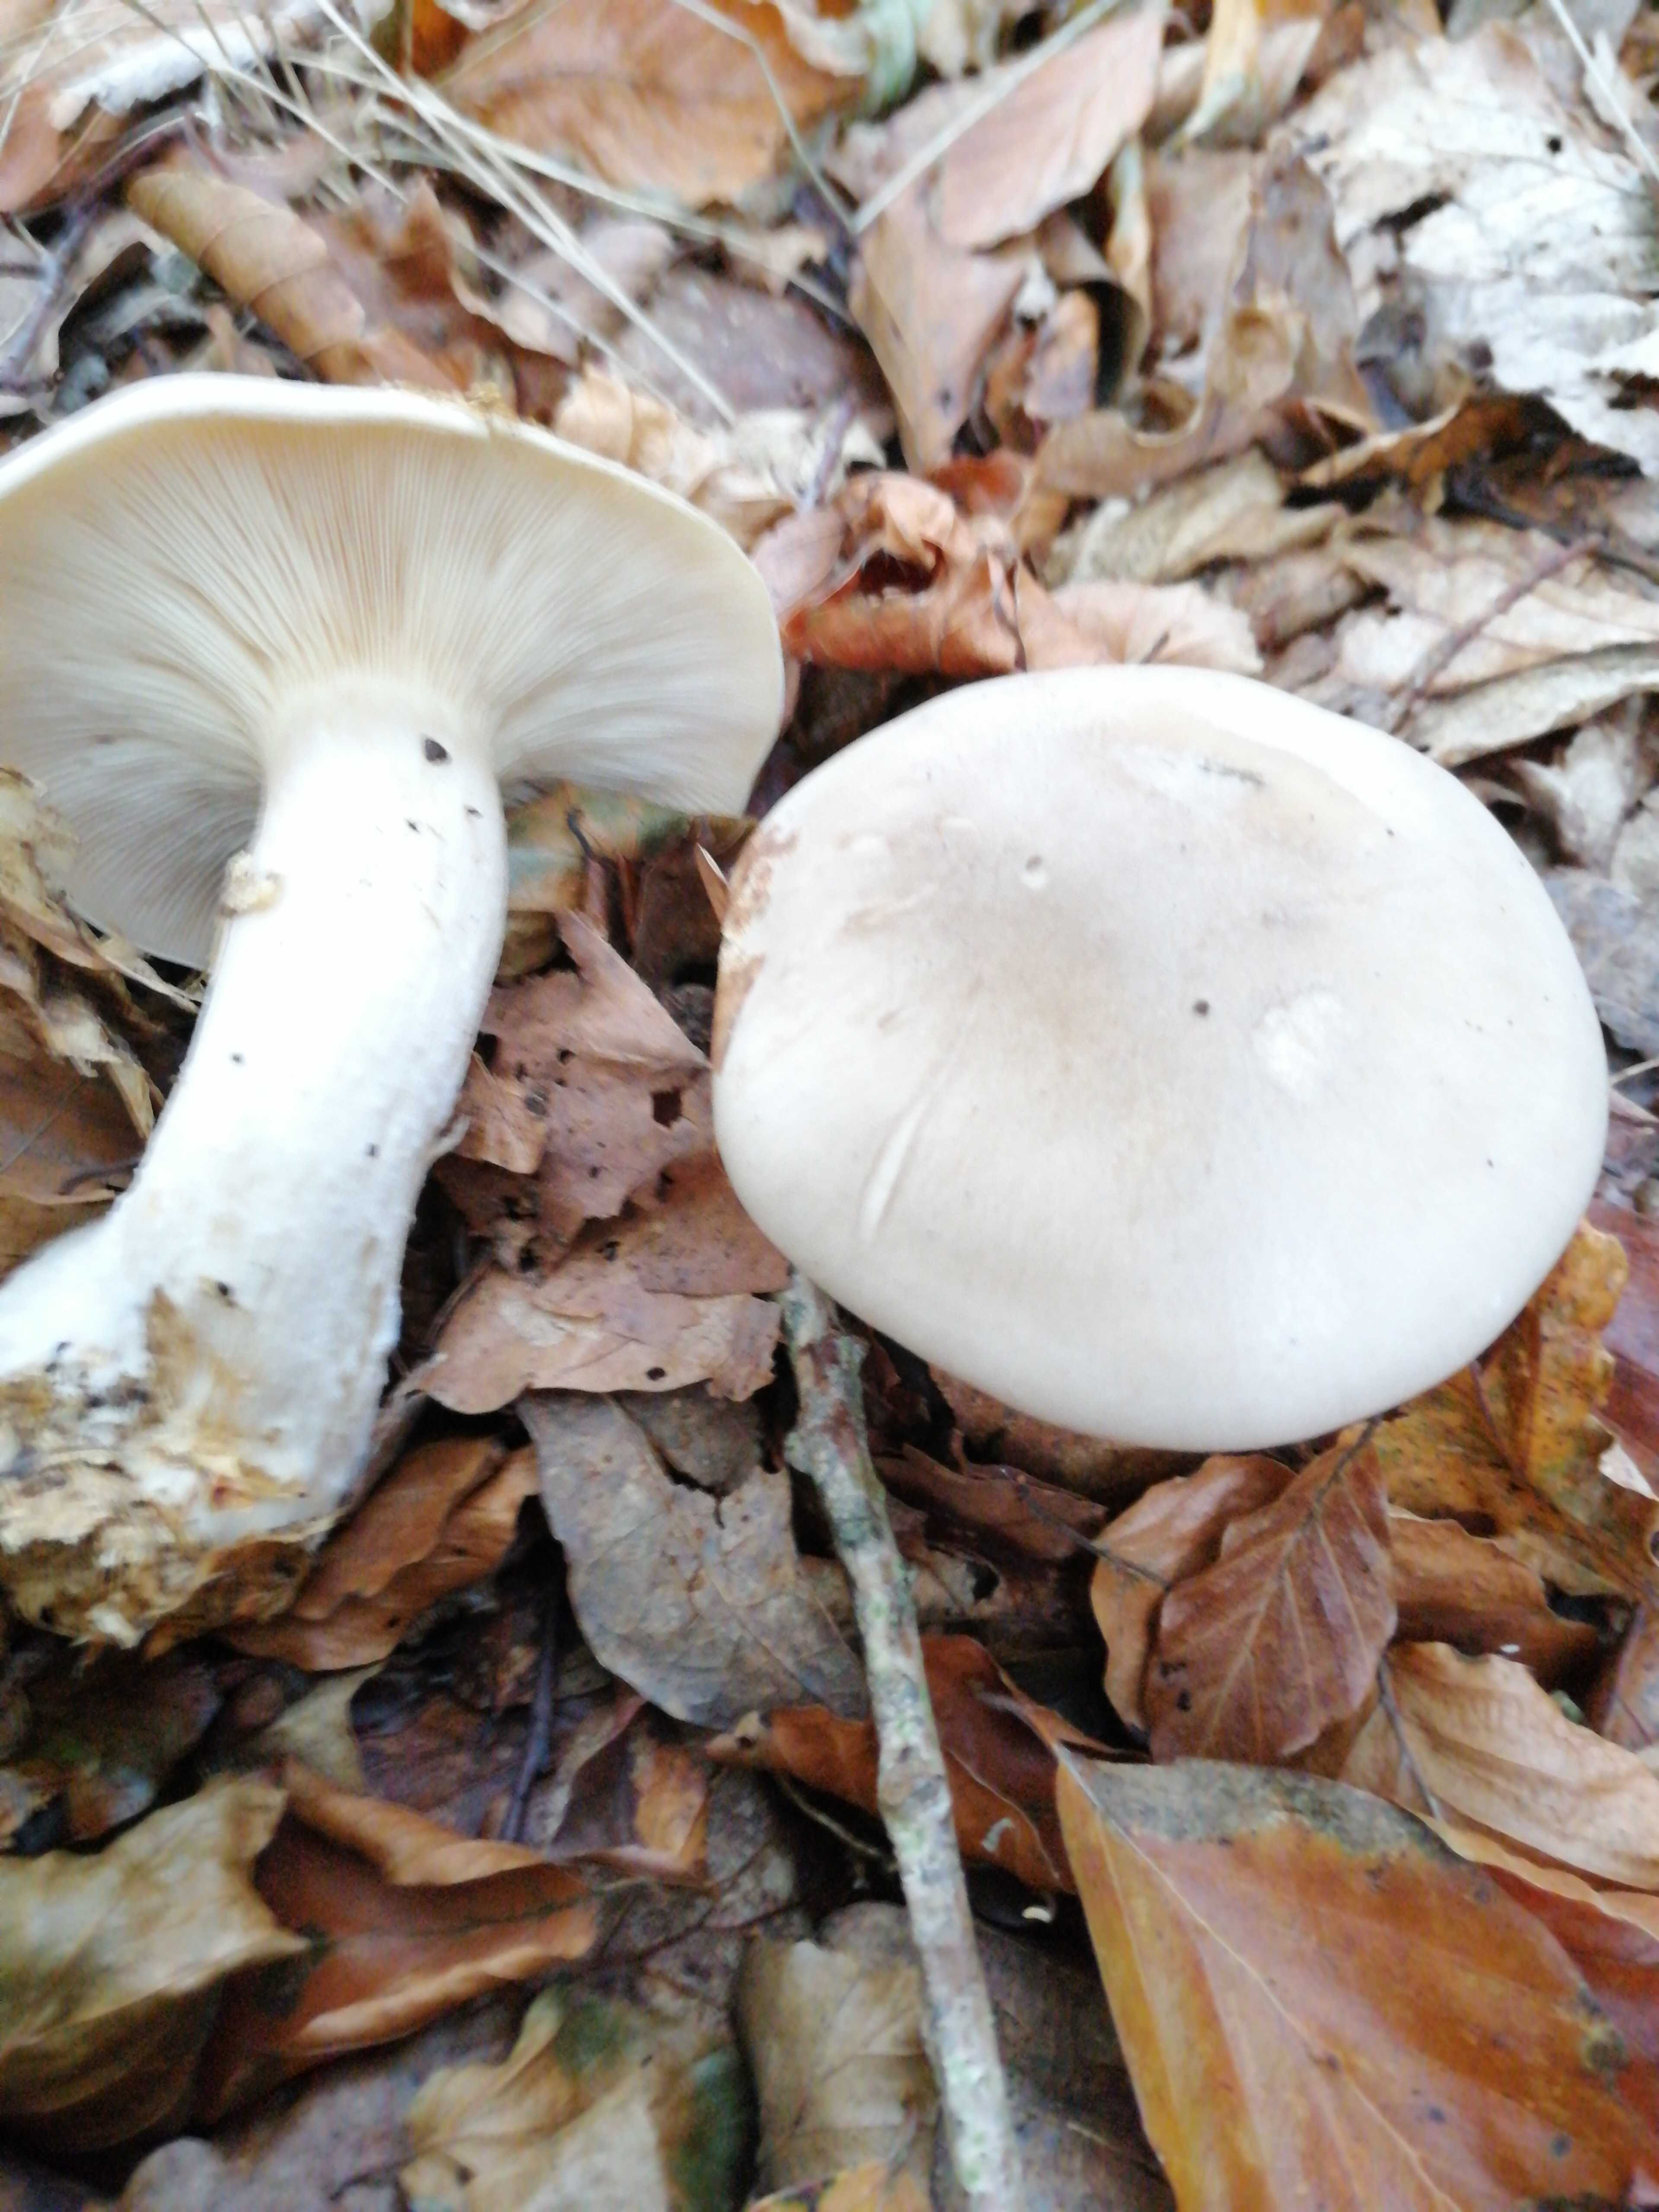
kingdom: Fungi
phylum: Basidiomycota
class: Agaricomycetes
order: Agaricales
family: Tricholomataceae
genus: Clitocybe
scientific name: Clitocybe nebularis
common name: tåge-tragthat
